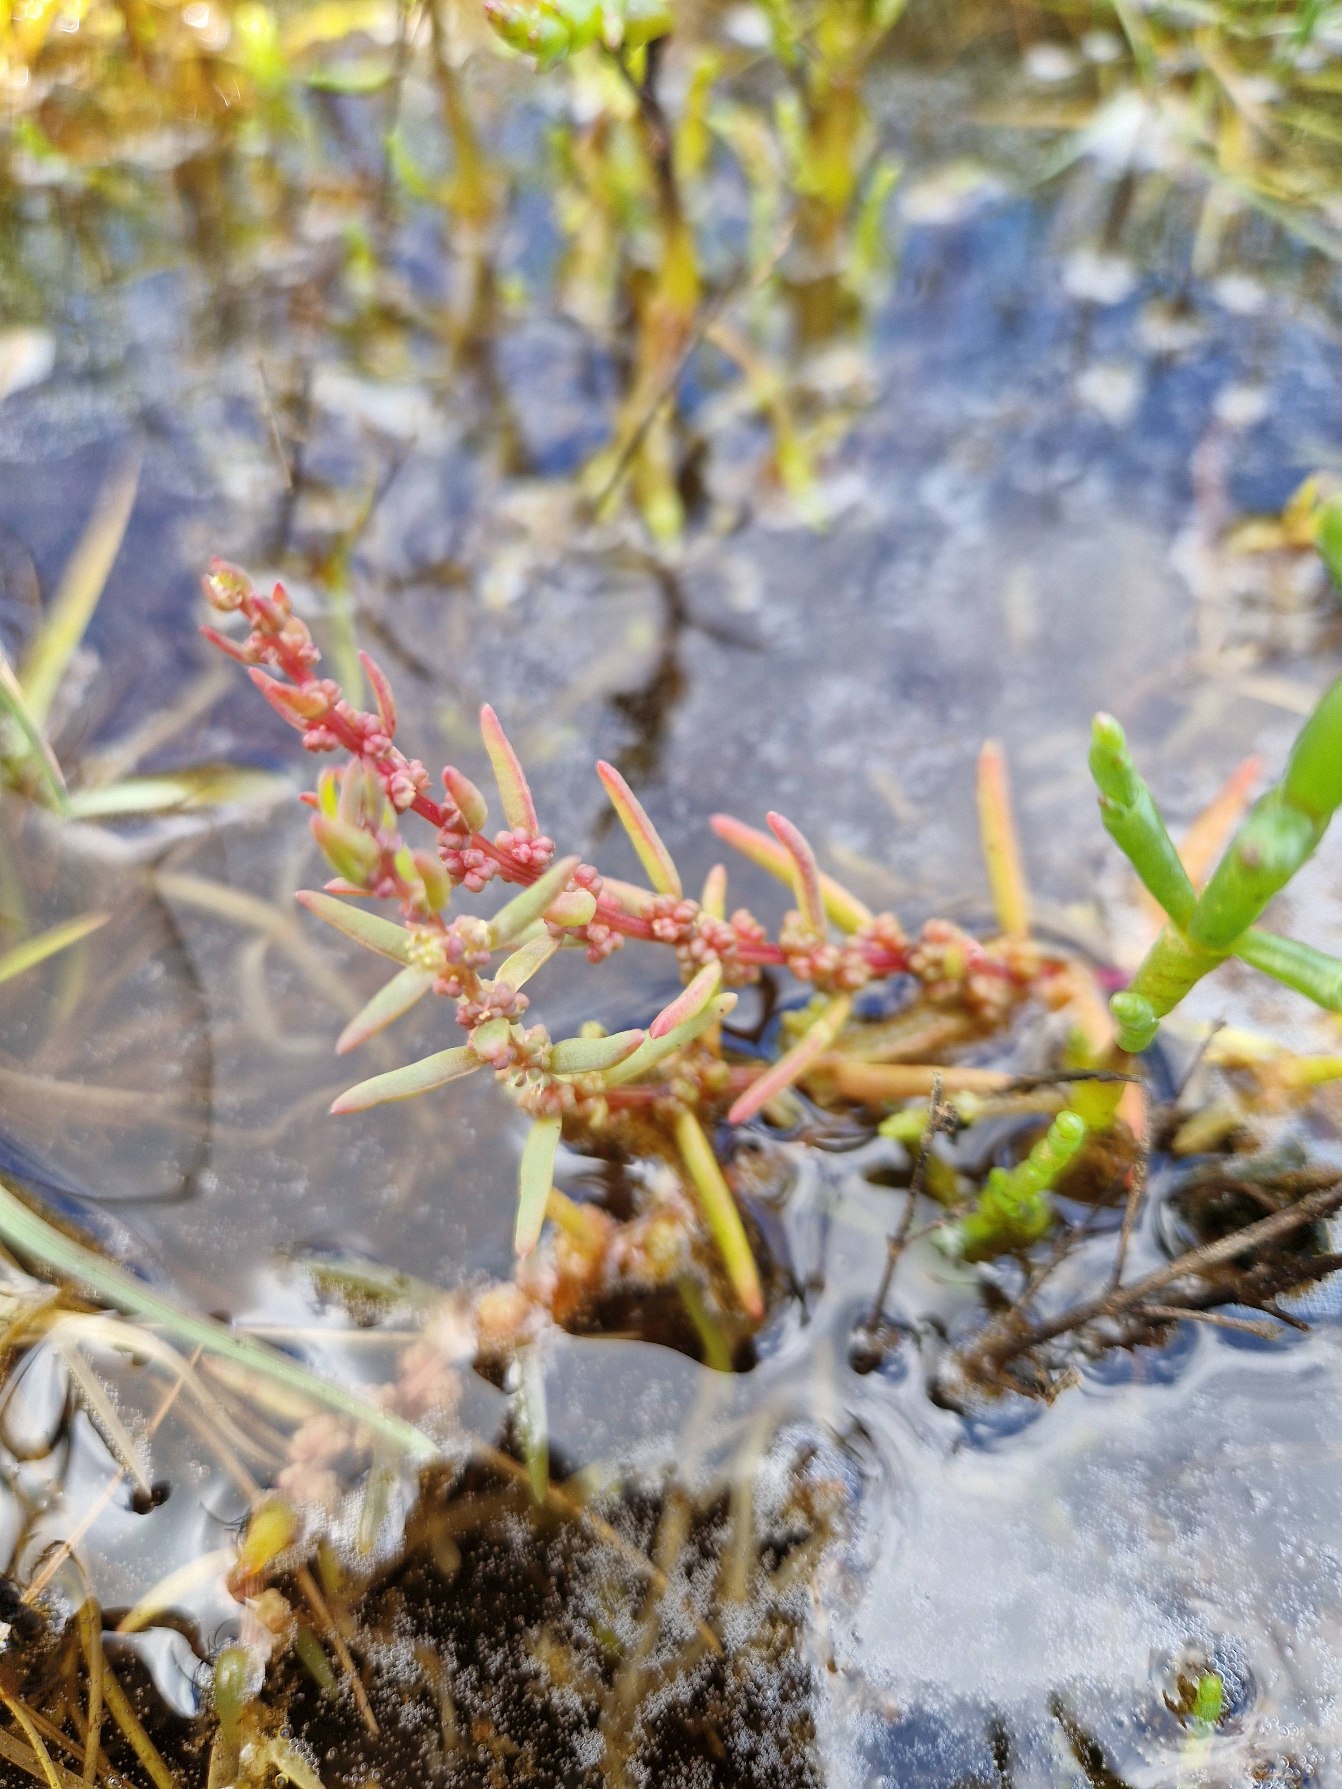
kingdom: Plantae
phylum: Tracheophyta
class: Magnoliopsida
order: Caryophyllales
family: Amaranthaceae
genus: Suaeda
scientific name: Suaeda maritima
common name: Strandgåsefod
